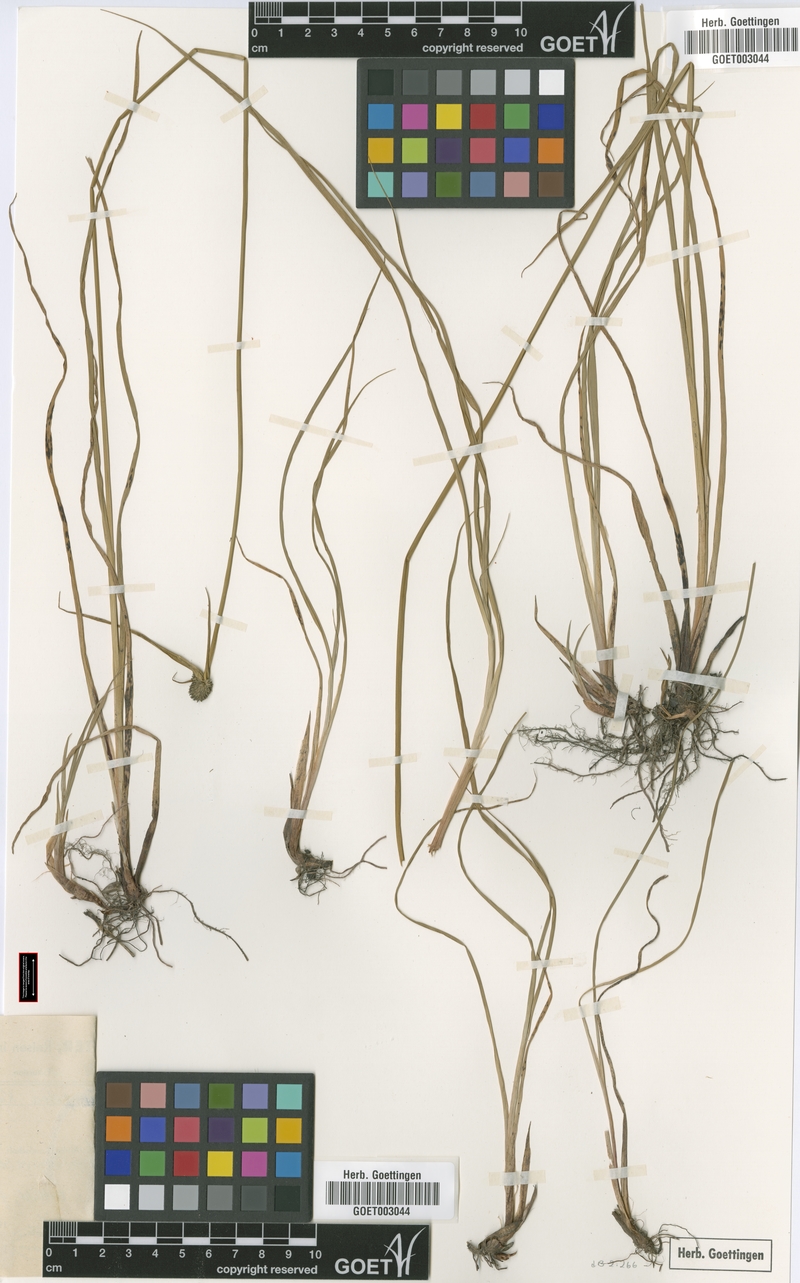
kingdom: Plantae
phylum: Tracheophyta
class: Liliopsida
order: Poales
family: Cyperaceae
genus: Cyperus
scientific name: Cyperus peteri
